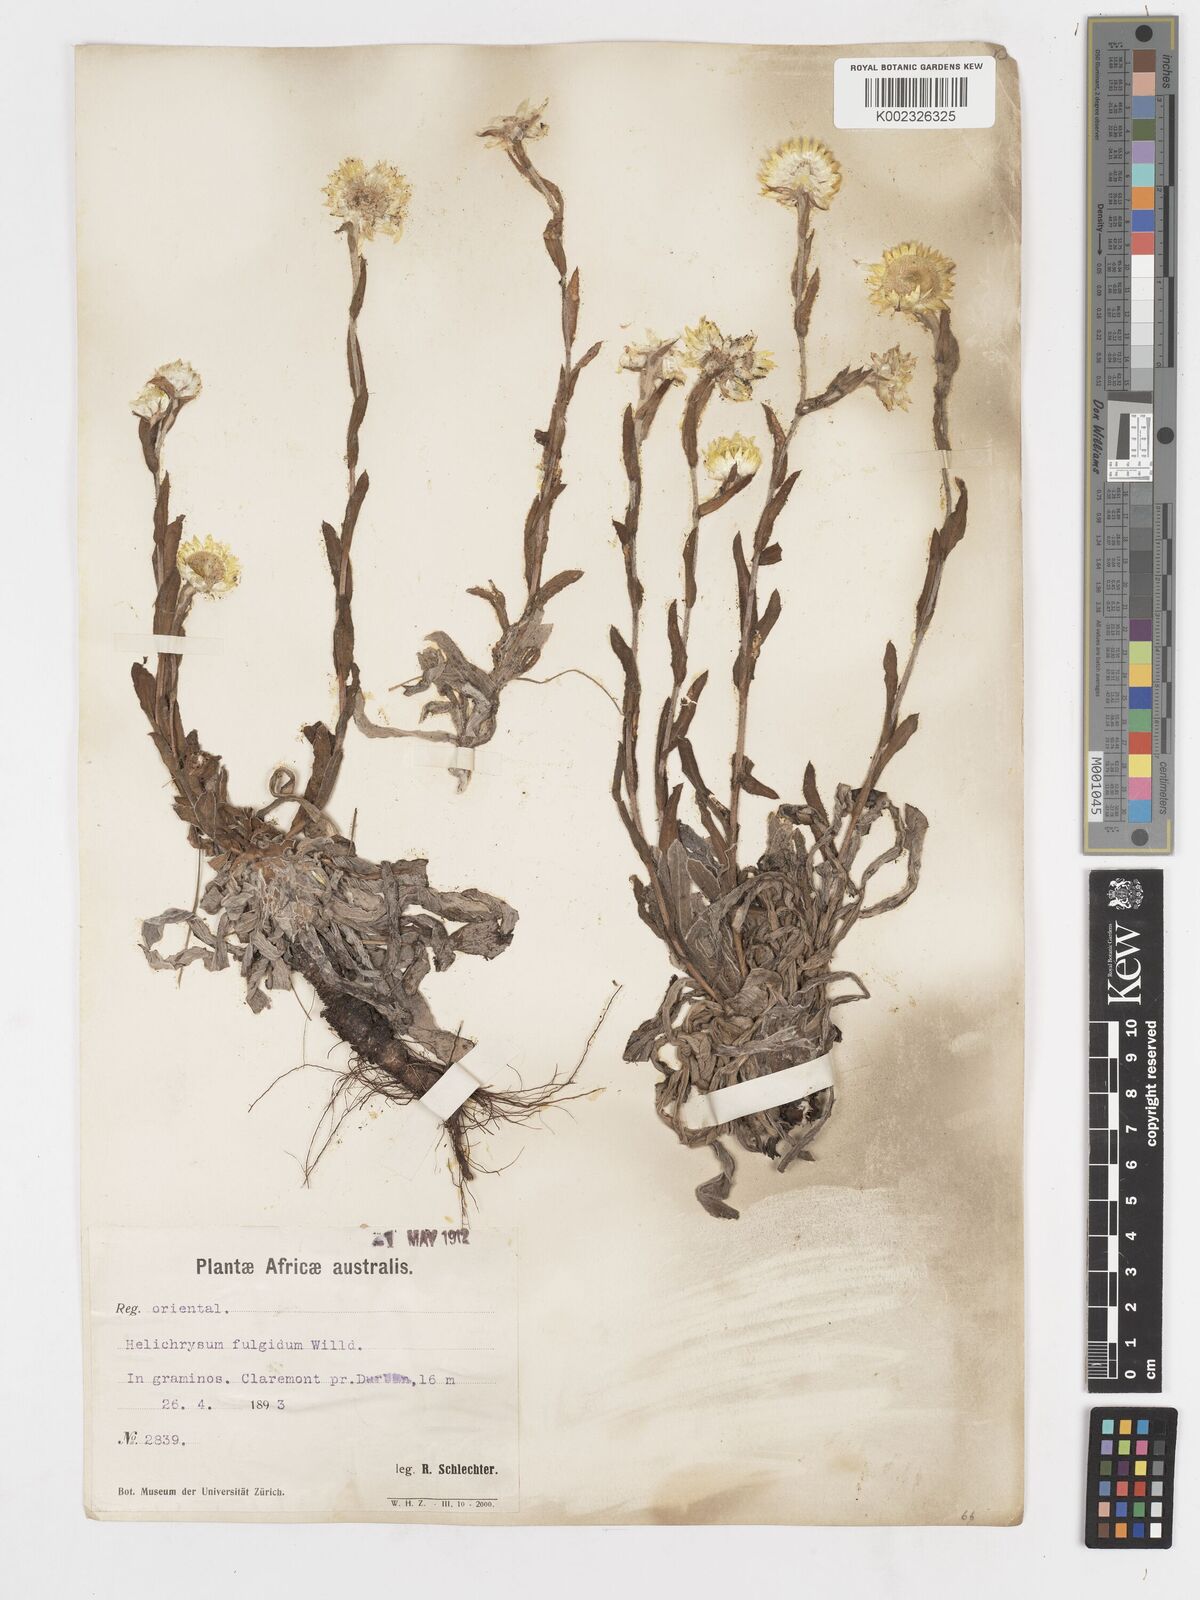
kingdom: Plantae
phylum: Tracheophyta
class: Magnoliopsida
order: Asterales
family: Asteraceae
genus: Helichrysum
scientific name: Helichrysum aureum
